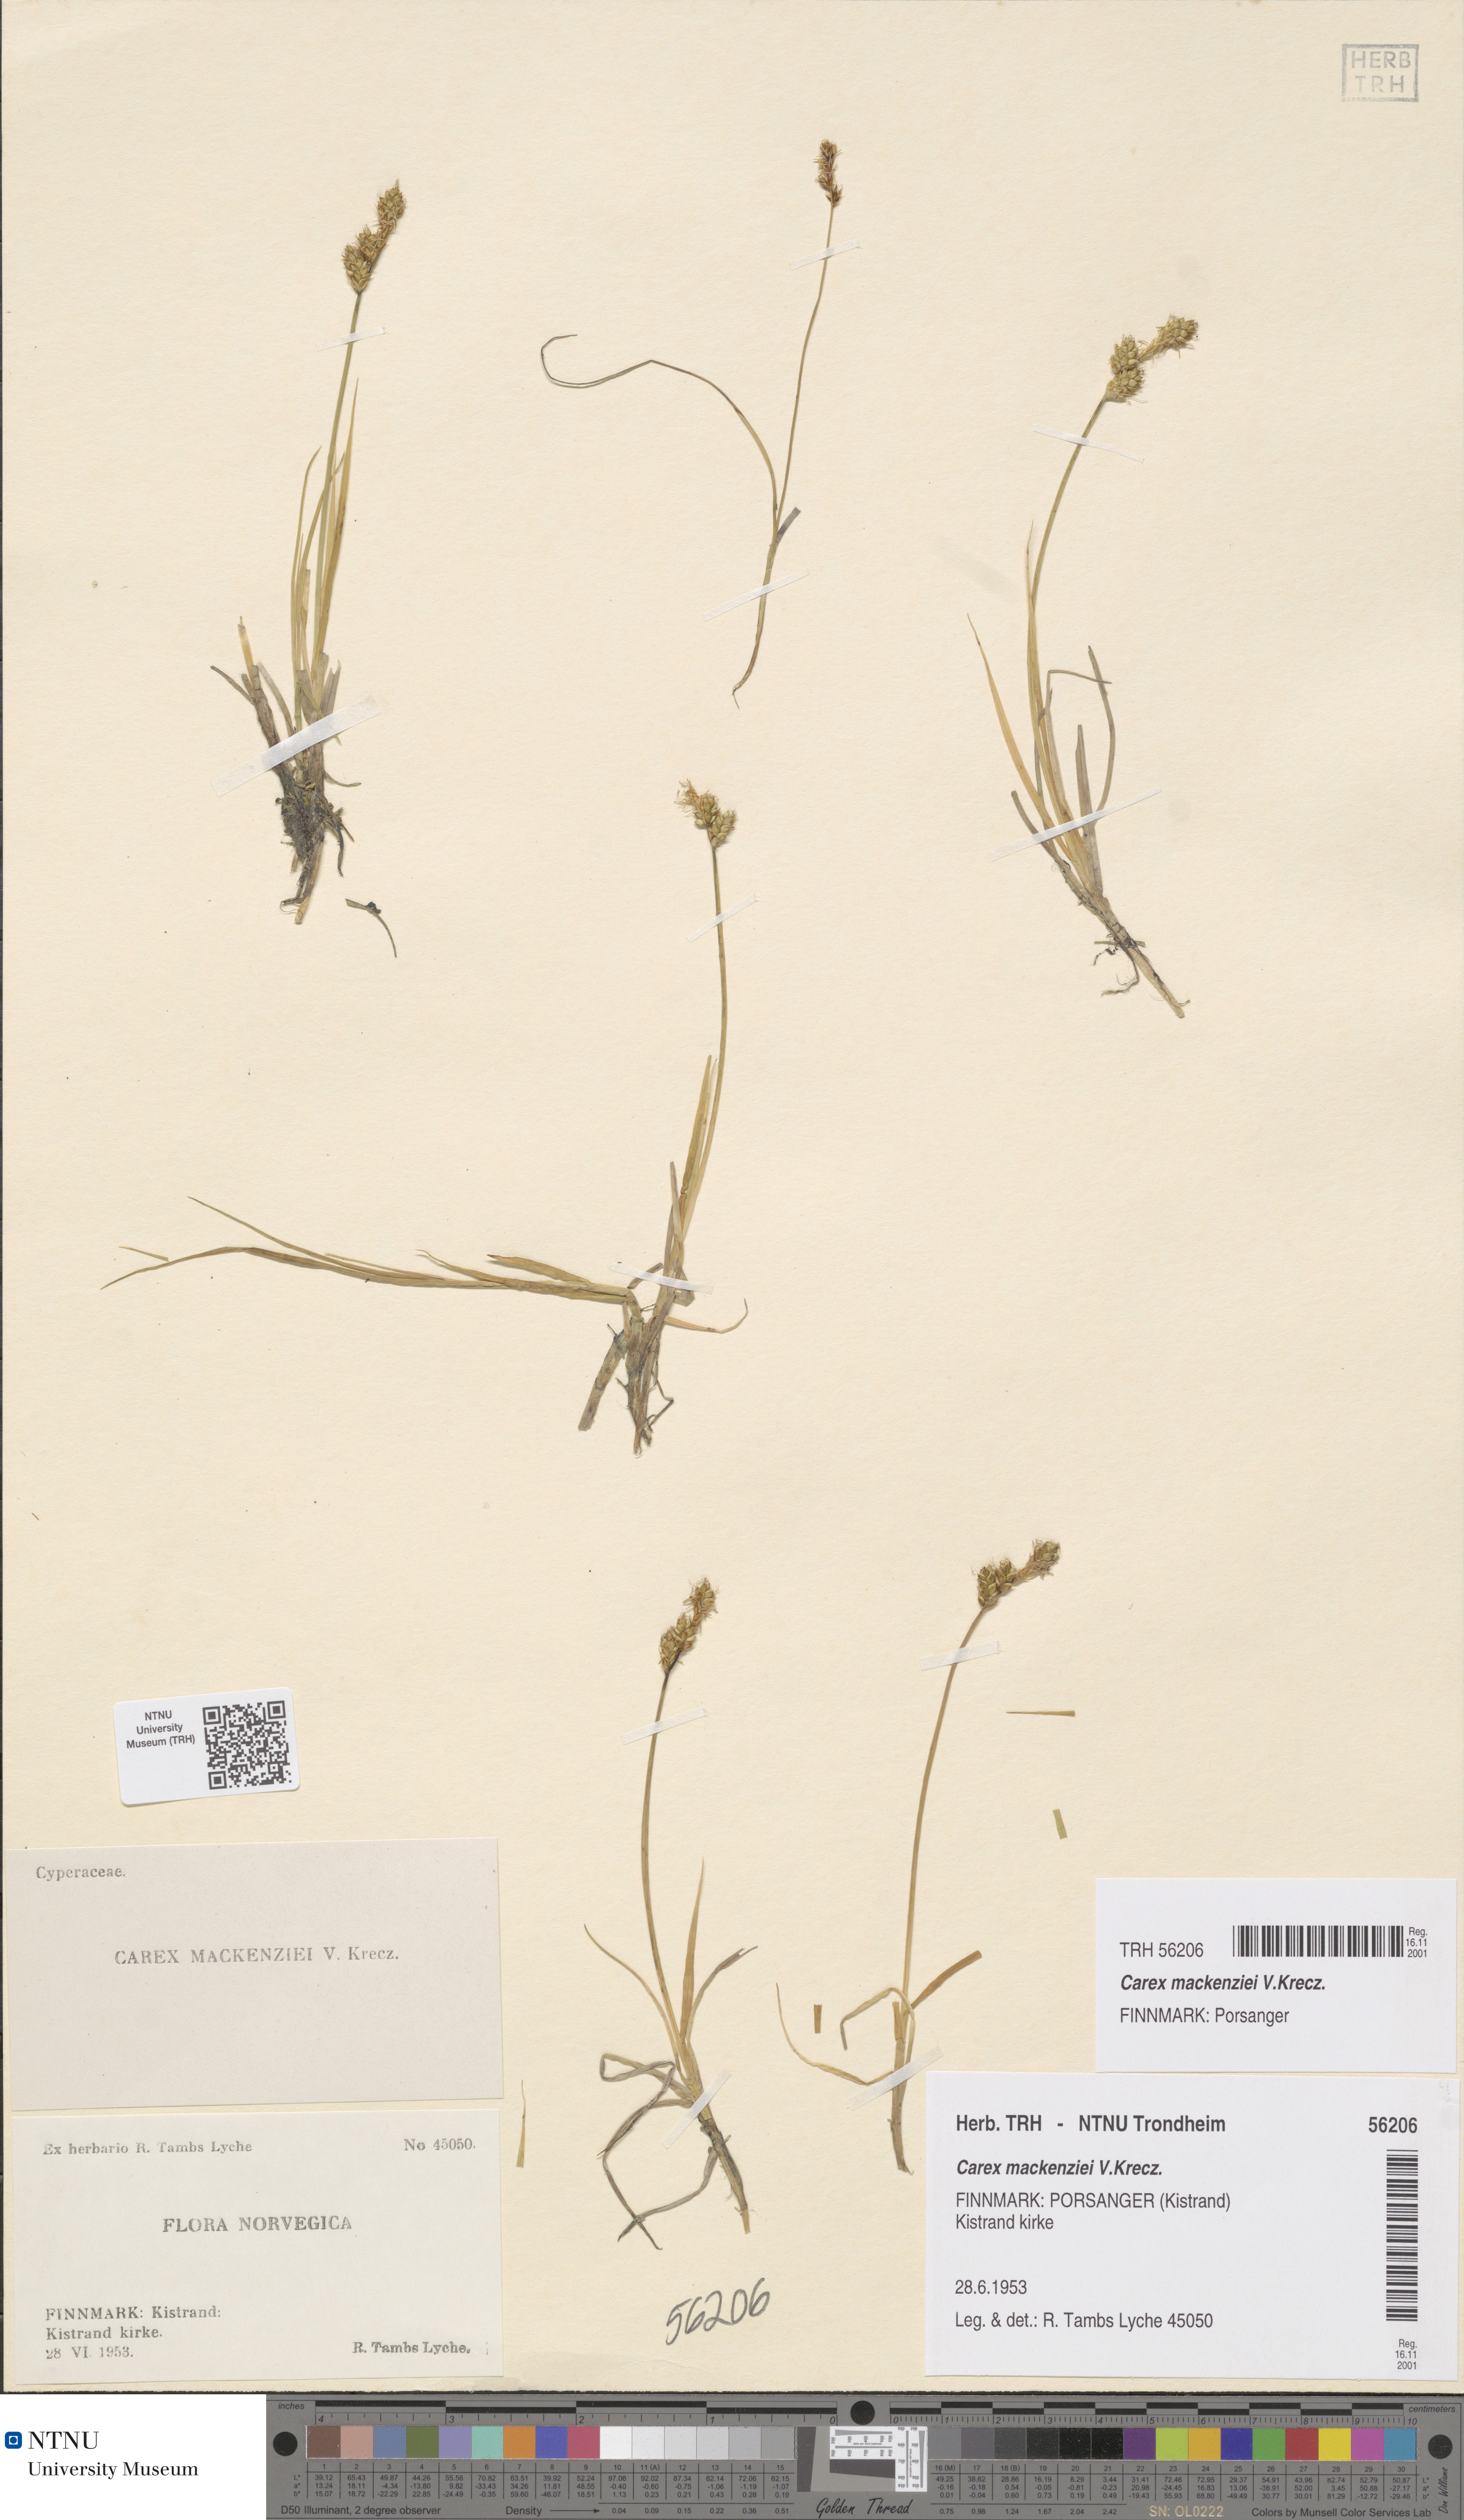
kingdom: Plantae
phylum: Tracheophyta
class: Liliopsida
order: Poales
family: Cyperaceae
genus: Carex
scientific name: Carex mackenziei
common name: Mackenzie's sedge
